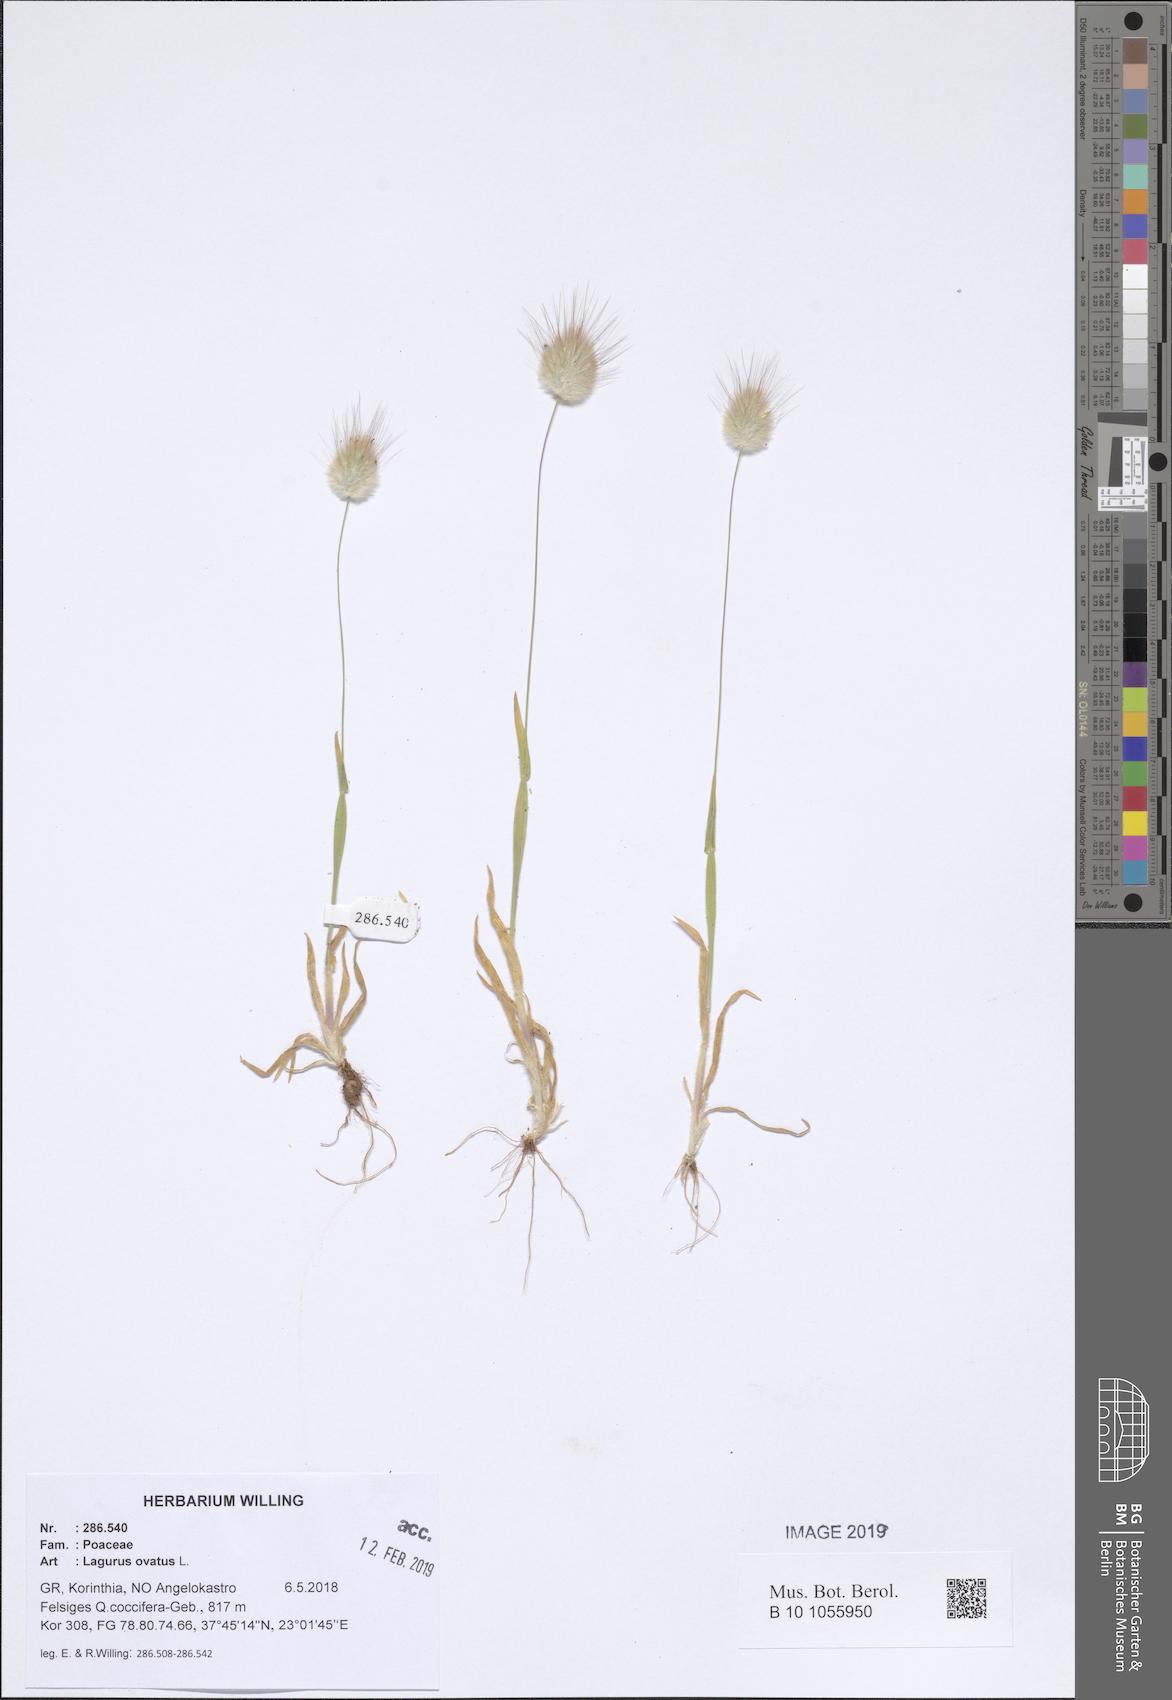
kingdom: Plantae
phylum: Tracheophyta
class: Liliopsida
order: Poales
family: Poaceae
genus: Lagurus
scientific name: Lagurus ovatus
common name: Hare's-tail
